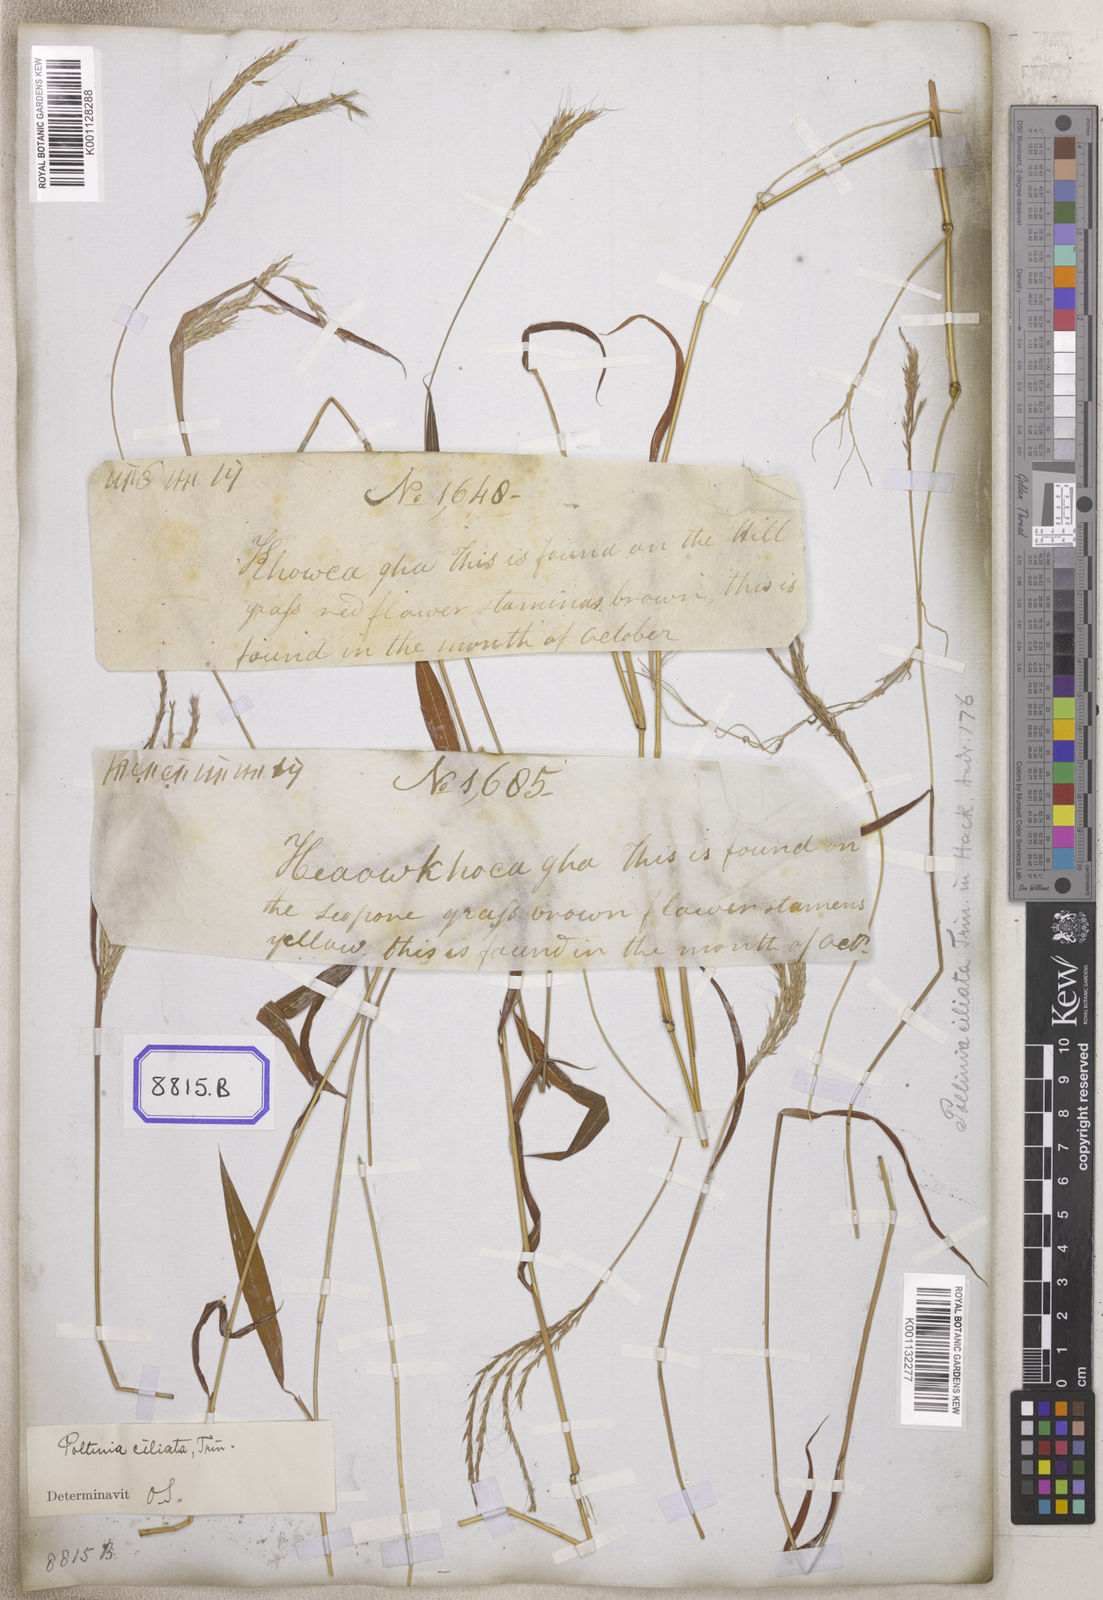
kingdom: Plantae
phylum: Tracheophyta
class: Liliopsida
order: Poales
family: Poaceae
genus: Andropogon
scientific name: Andropogon
